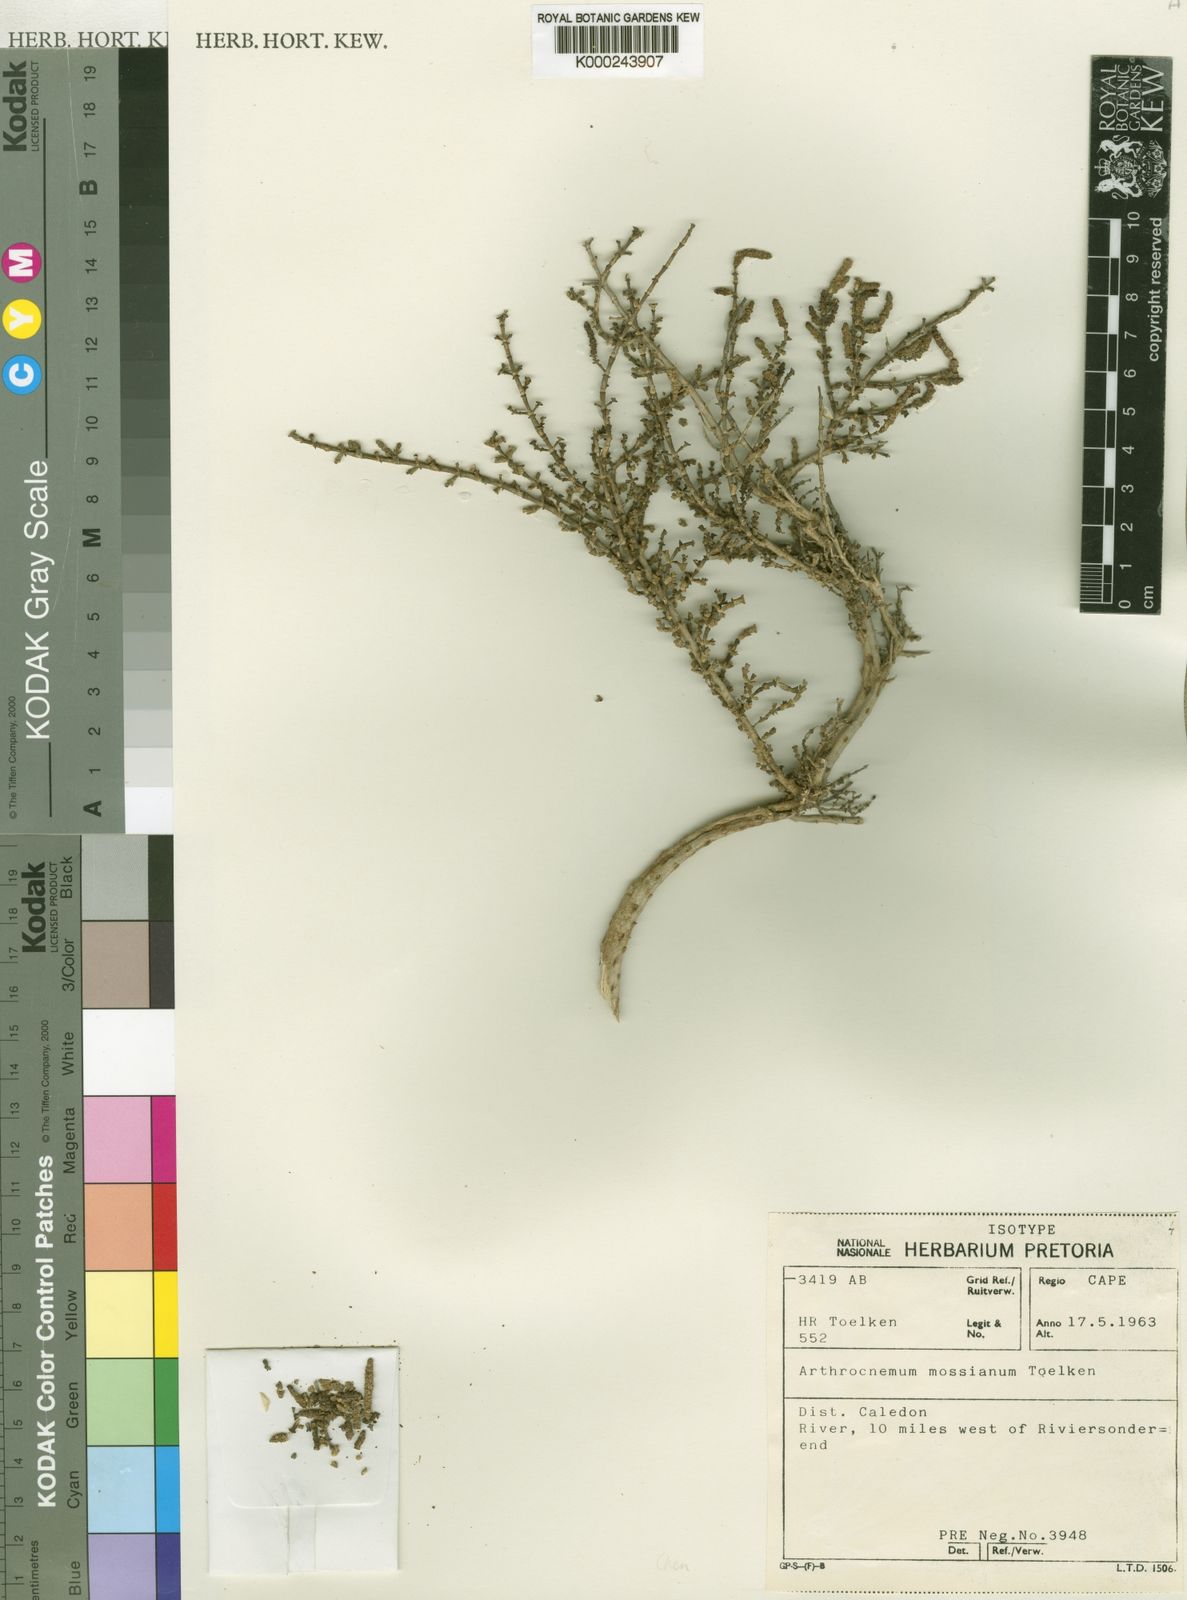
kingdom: Plantae
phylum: Tracheophyta
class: Magnoliopsida
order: Caryophyllales
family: Amaranthaceae
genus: Salicornia
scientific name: Salicornia mossiana
